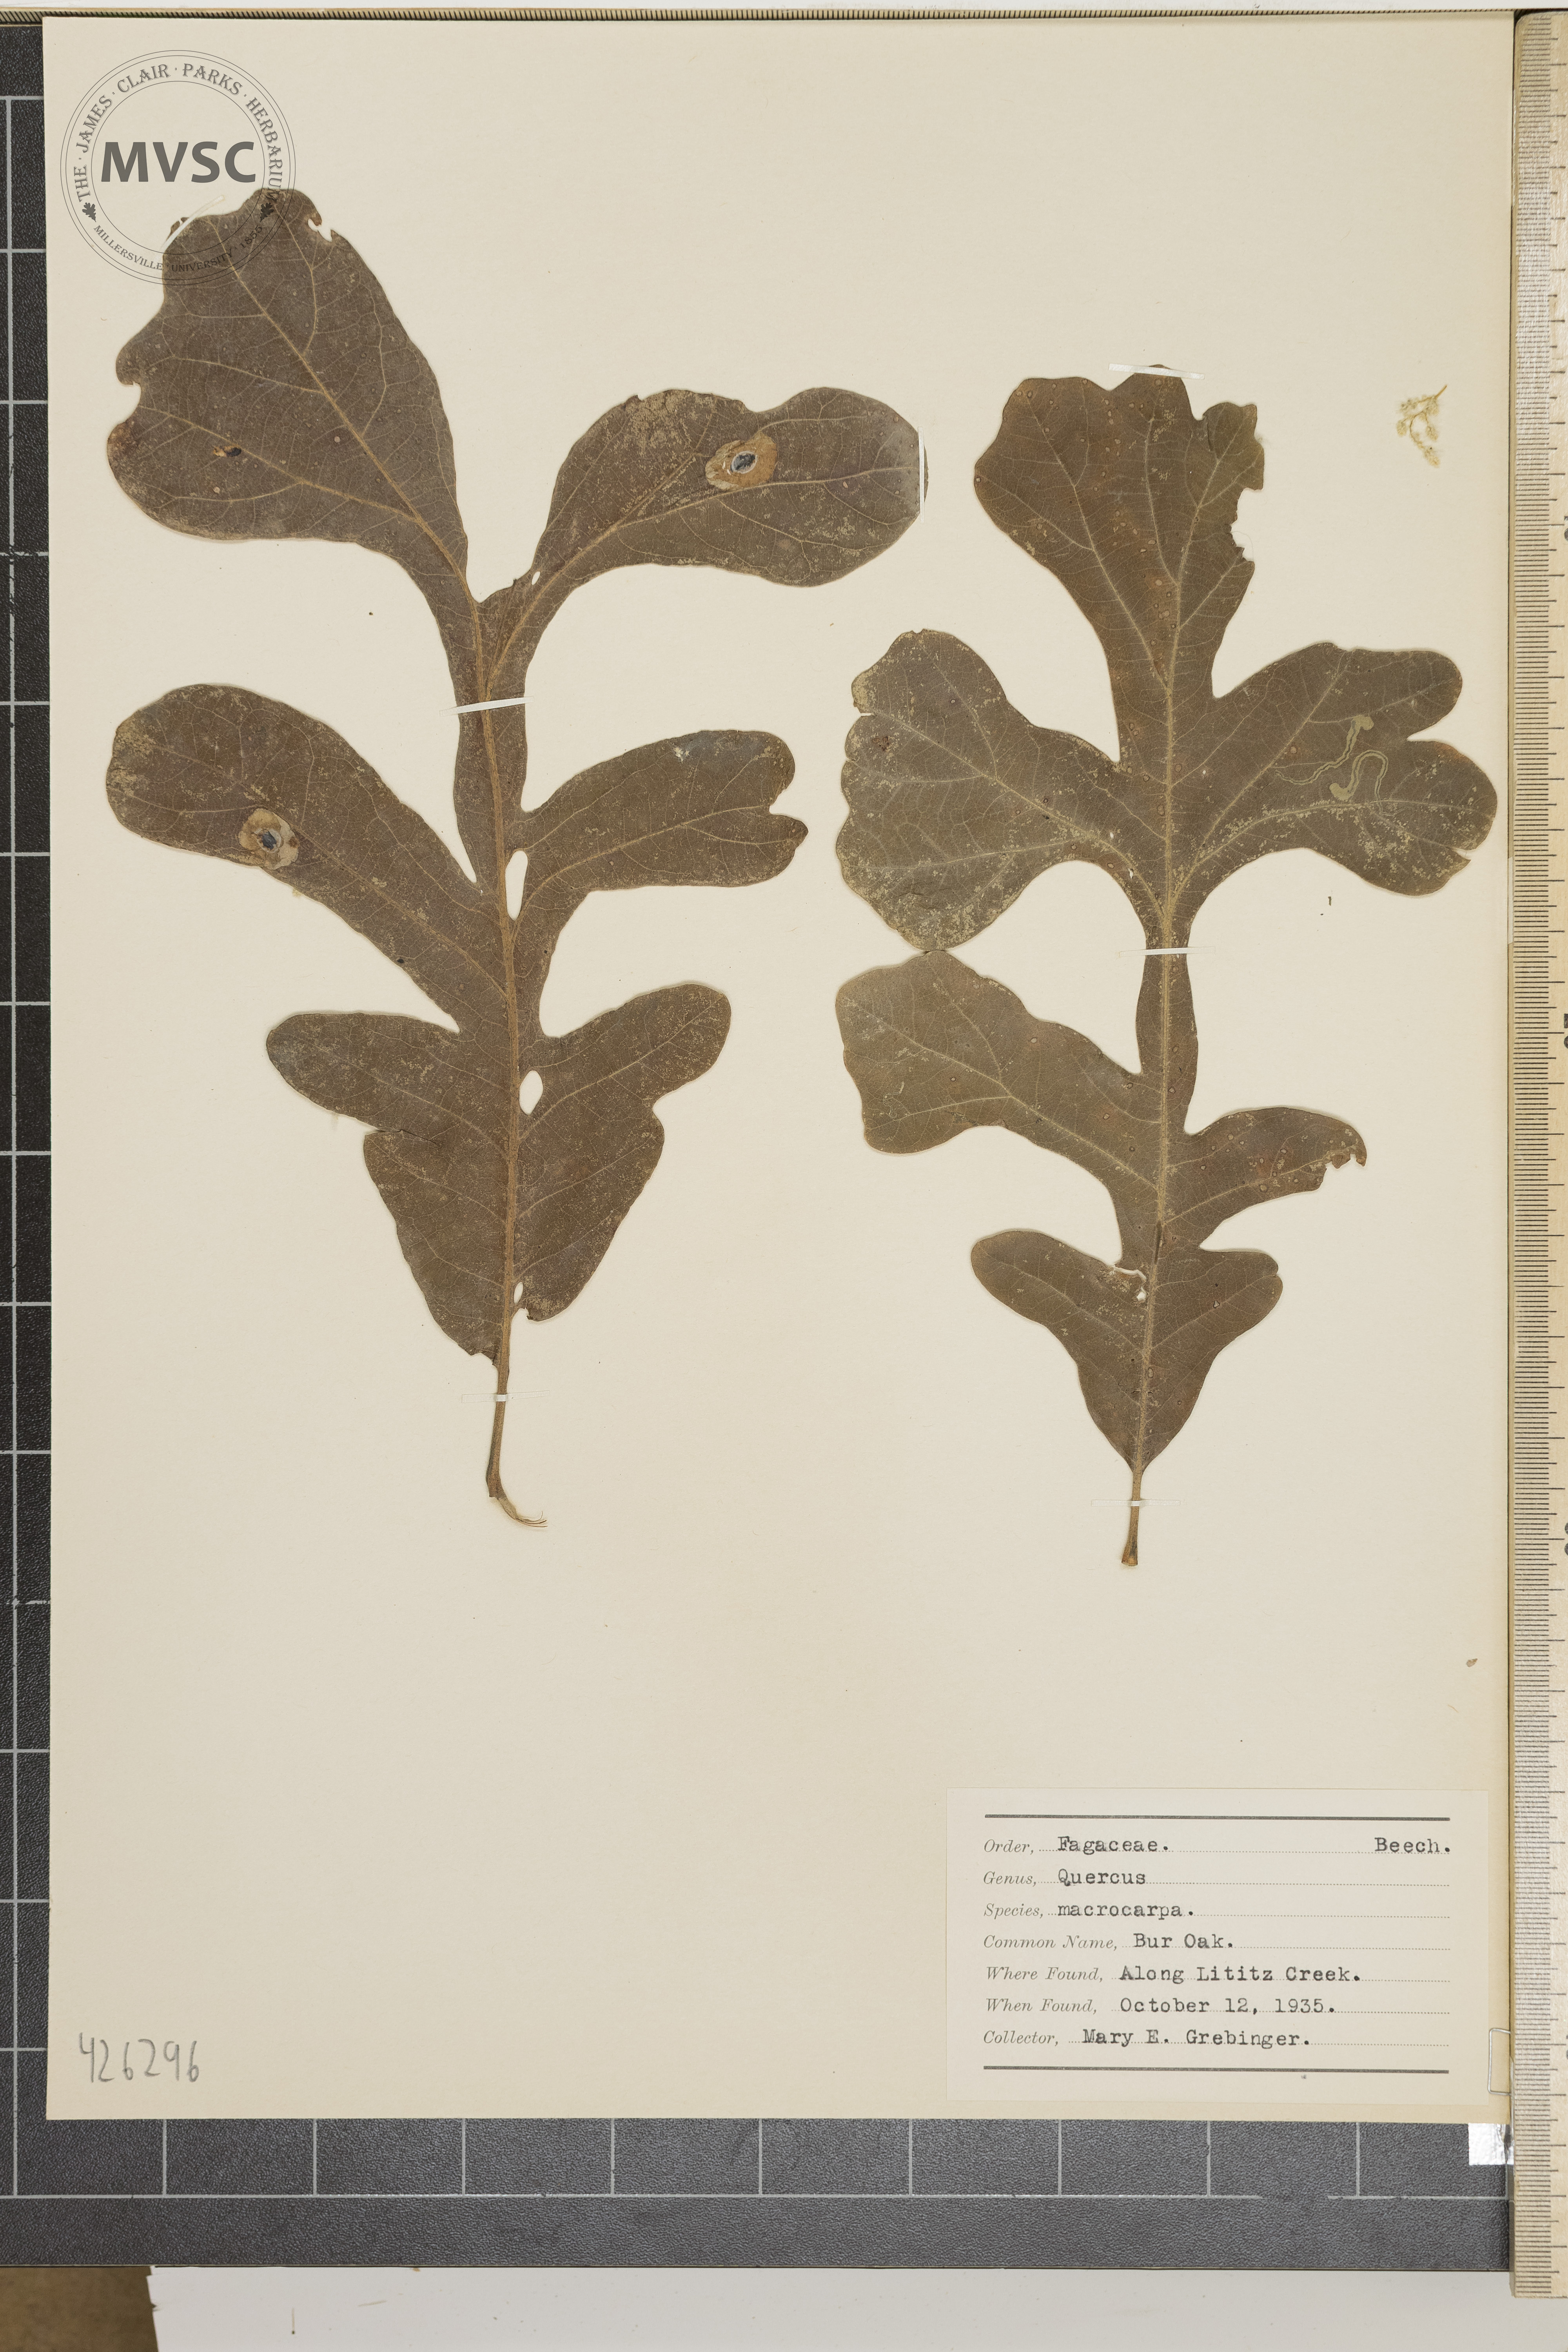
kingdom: Plantae
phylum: Tracheophyta
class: Magnoliopsida
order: Fagales
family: Fagaceae
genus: Quercus
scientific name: Quercus macrocarpa
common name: Bur Oak
